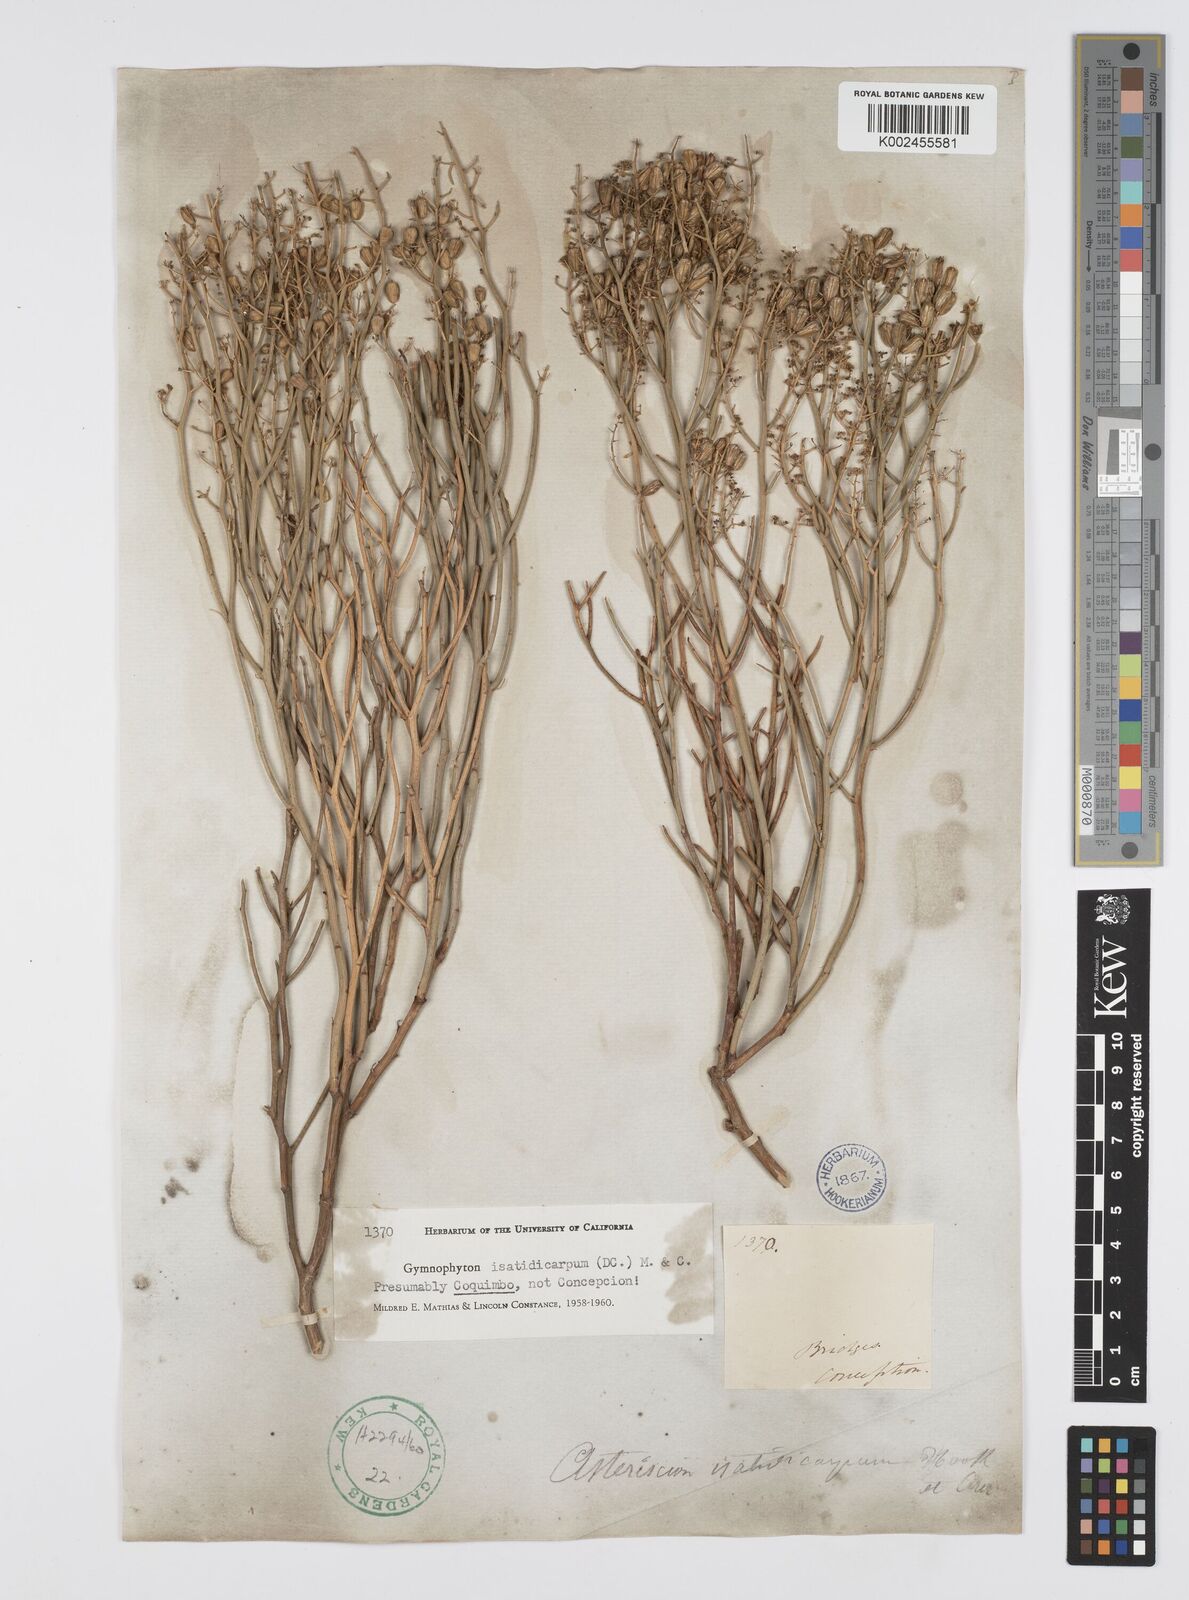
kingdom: Plantae
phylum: Tracheophyta
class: Magnoliopsida
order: Apiales
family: Apiaceae
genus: Gymnophyton
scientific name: Gymnophyton isatidicarpum
